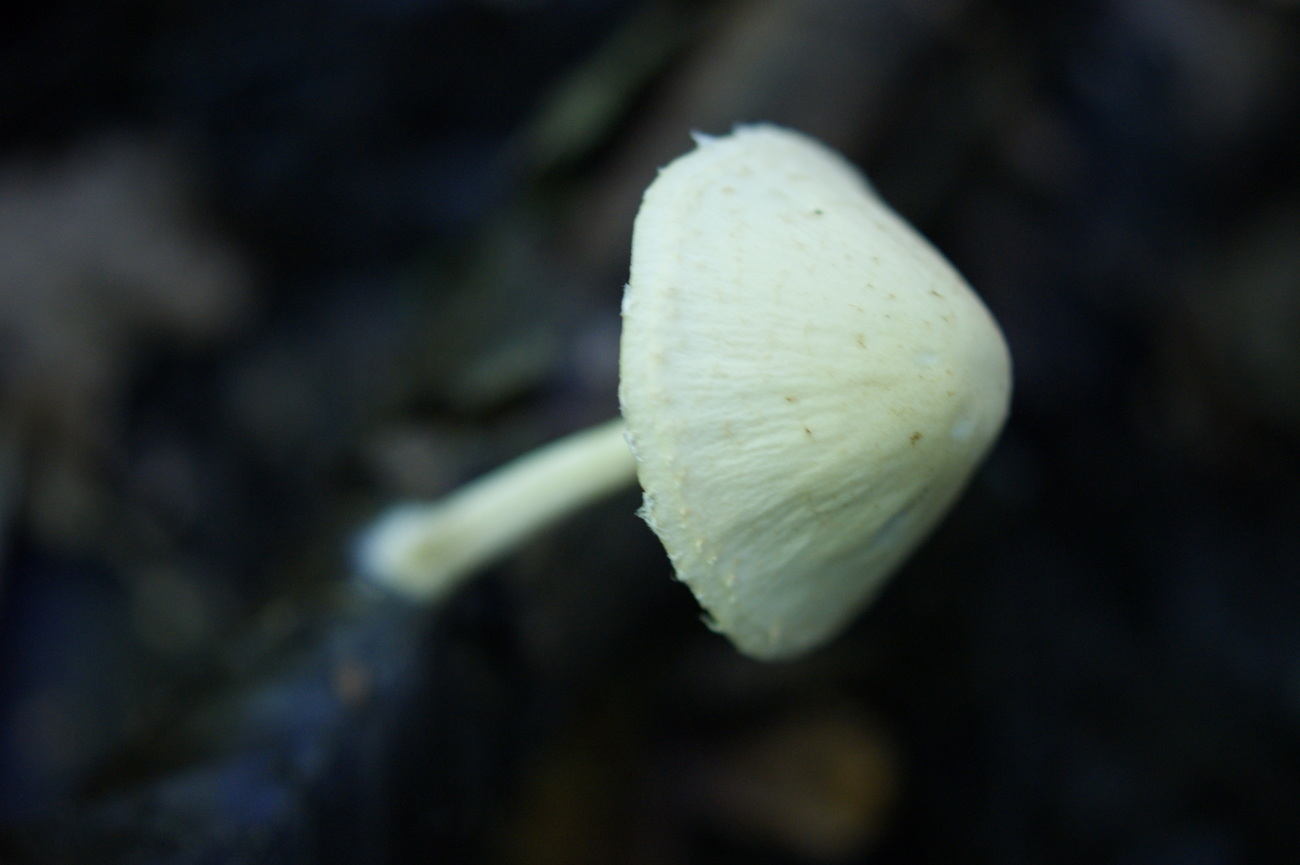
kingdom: Fungi
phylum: Basidiomycota
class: Agaricomycetes
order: Agaricales
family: Psathyrellaceae
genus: Candolleomyces
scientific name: Candolleomyces candolleanus
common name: Candolles mørkhat
